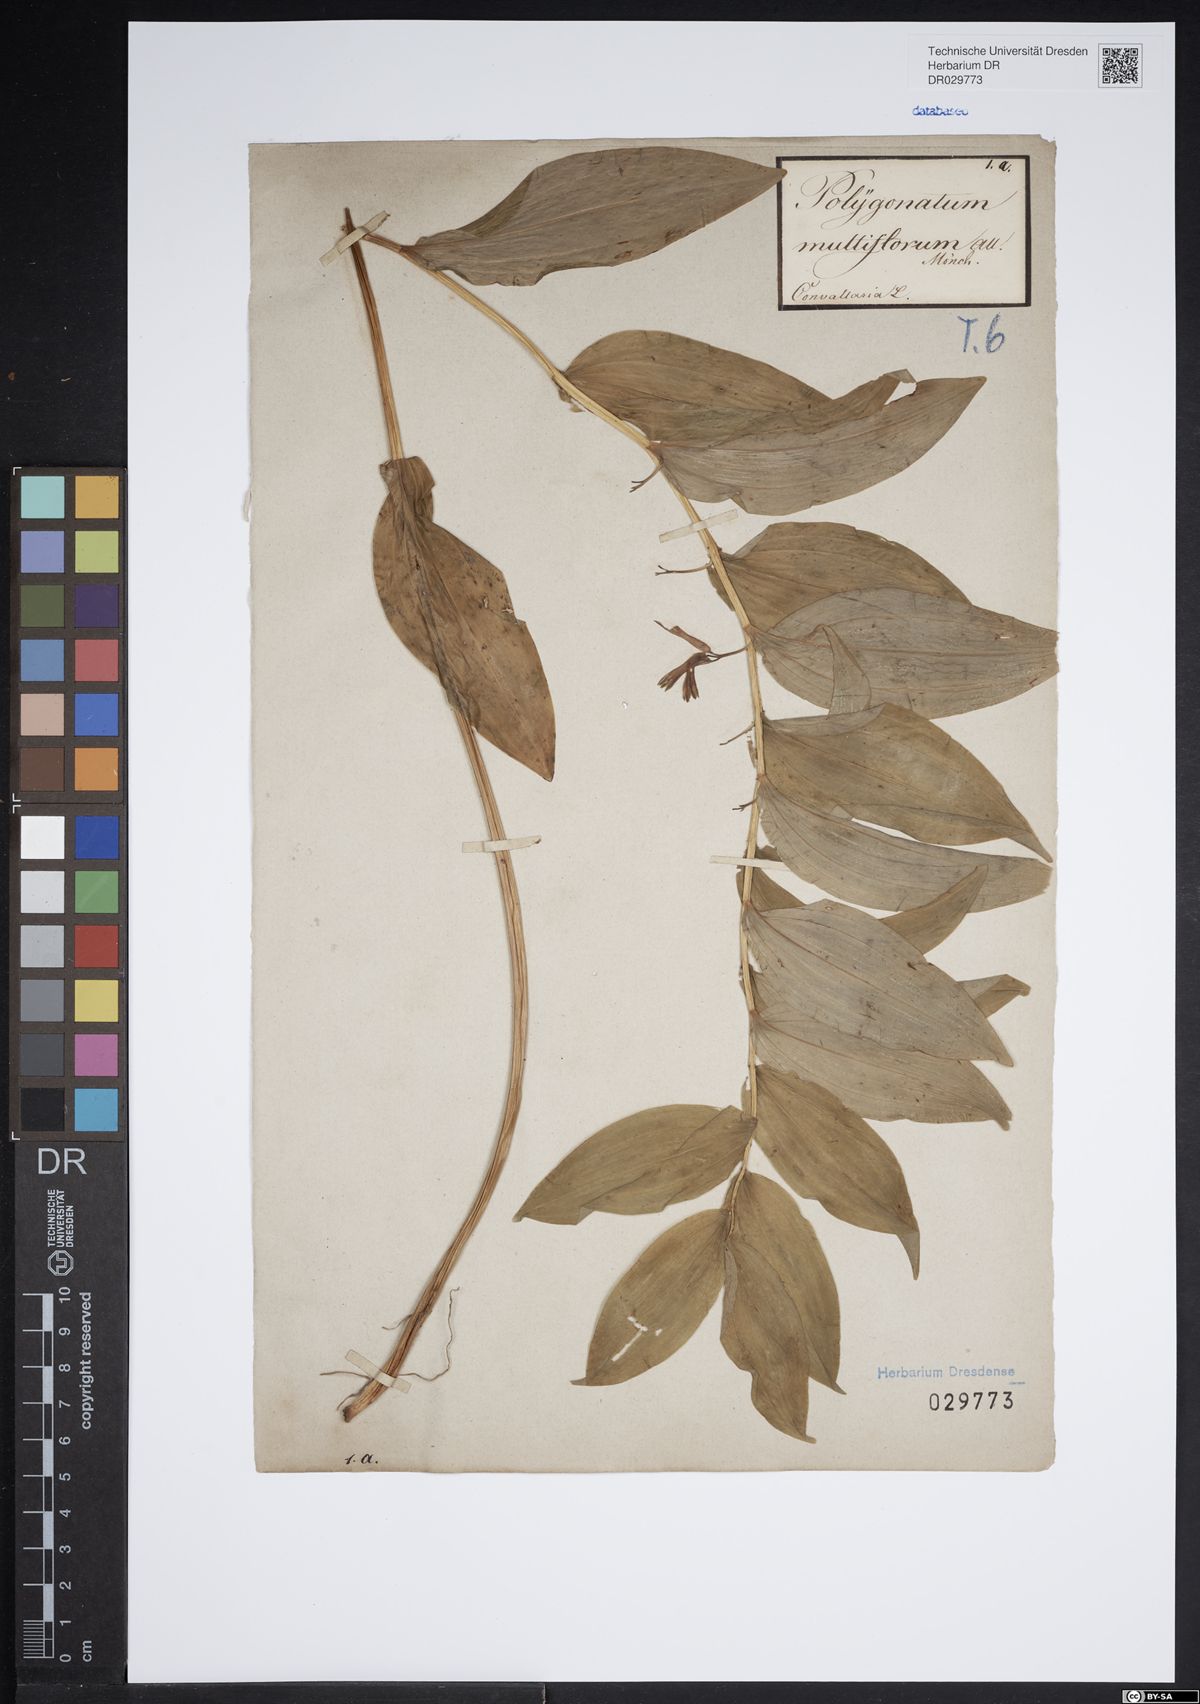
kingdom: Plantae
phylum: Tracheophyta
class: Liliopsida
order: Asparagales
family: Asparagaceae
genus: Polygonatum
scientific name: Polygonatum multiflorum
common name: Solomon's-seal
